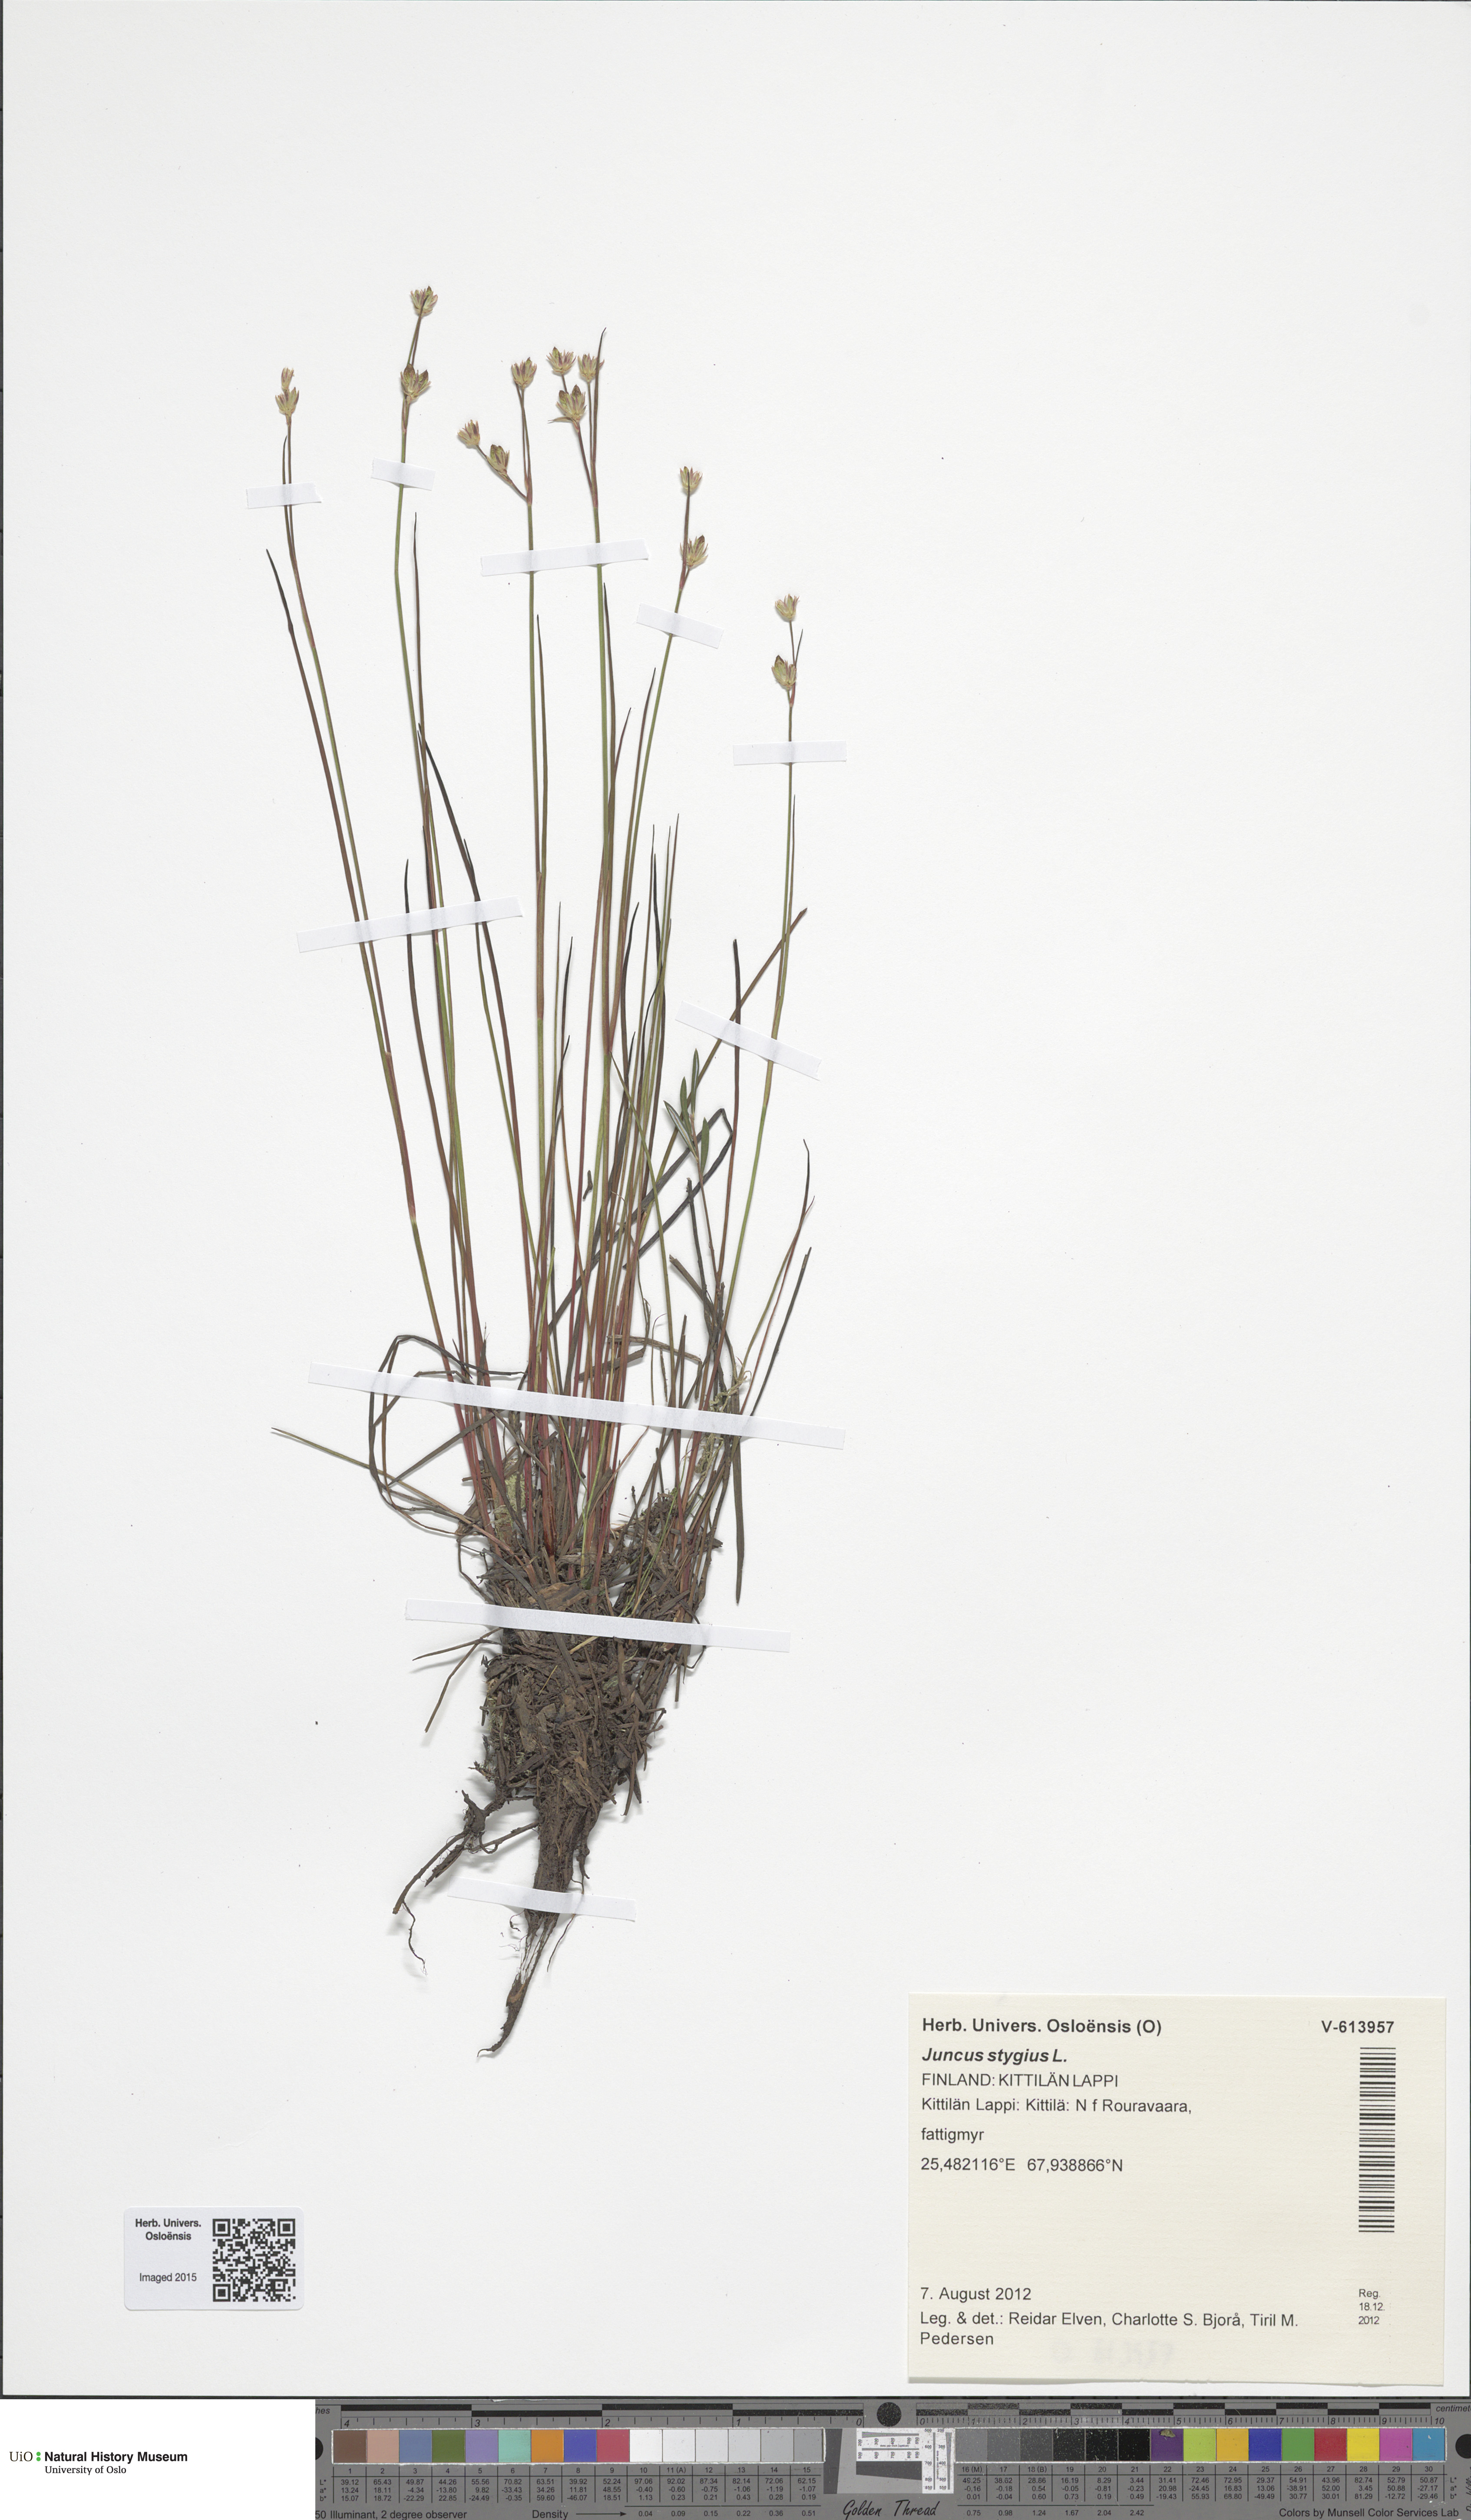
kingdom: Plantae
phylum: Tracheophyta
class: Liliopsida
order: Poales
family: Juncaceae
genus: Juncus
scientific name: Juncus stygius
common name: Bog rush
